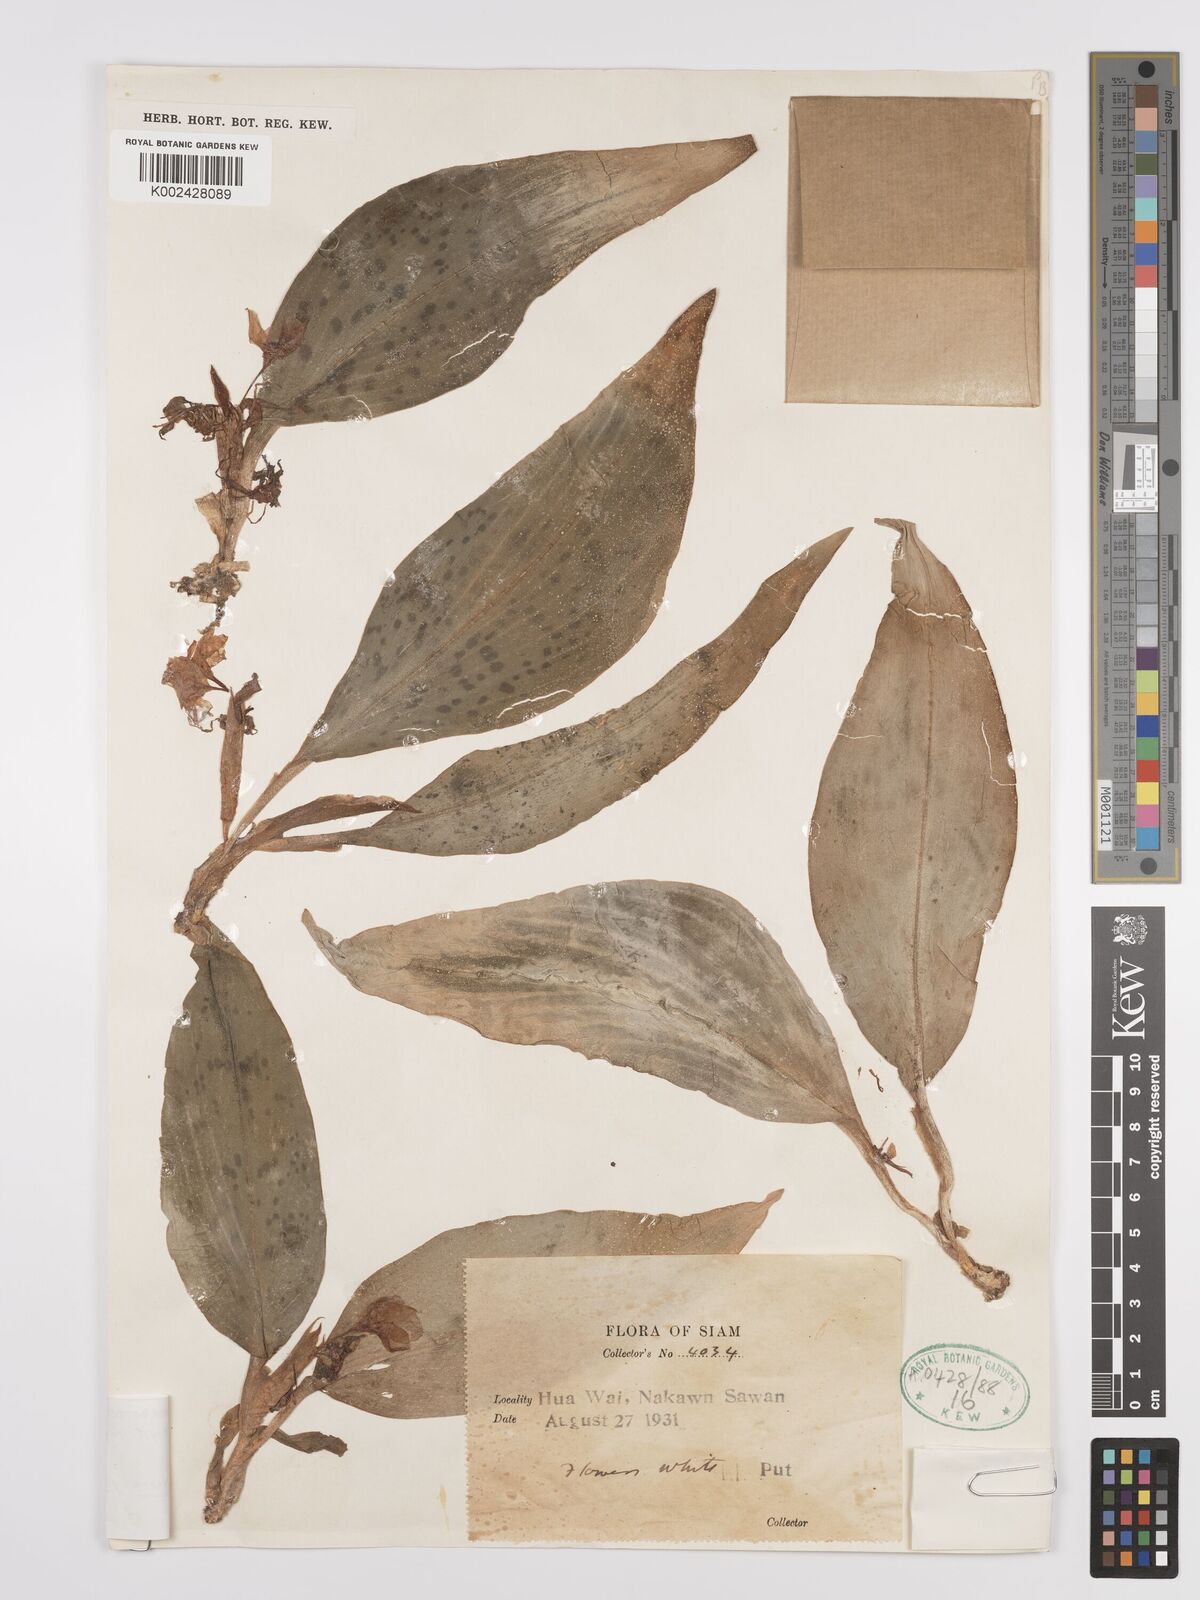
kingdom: Plantae
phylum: Tracheophyta
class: Liliopsida
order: Zingiberales
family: Zingiberaceae
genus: Kaempferia
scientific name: Kaempferia elegans
